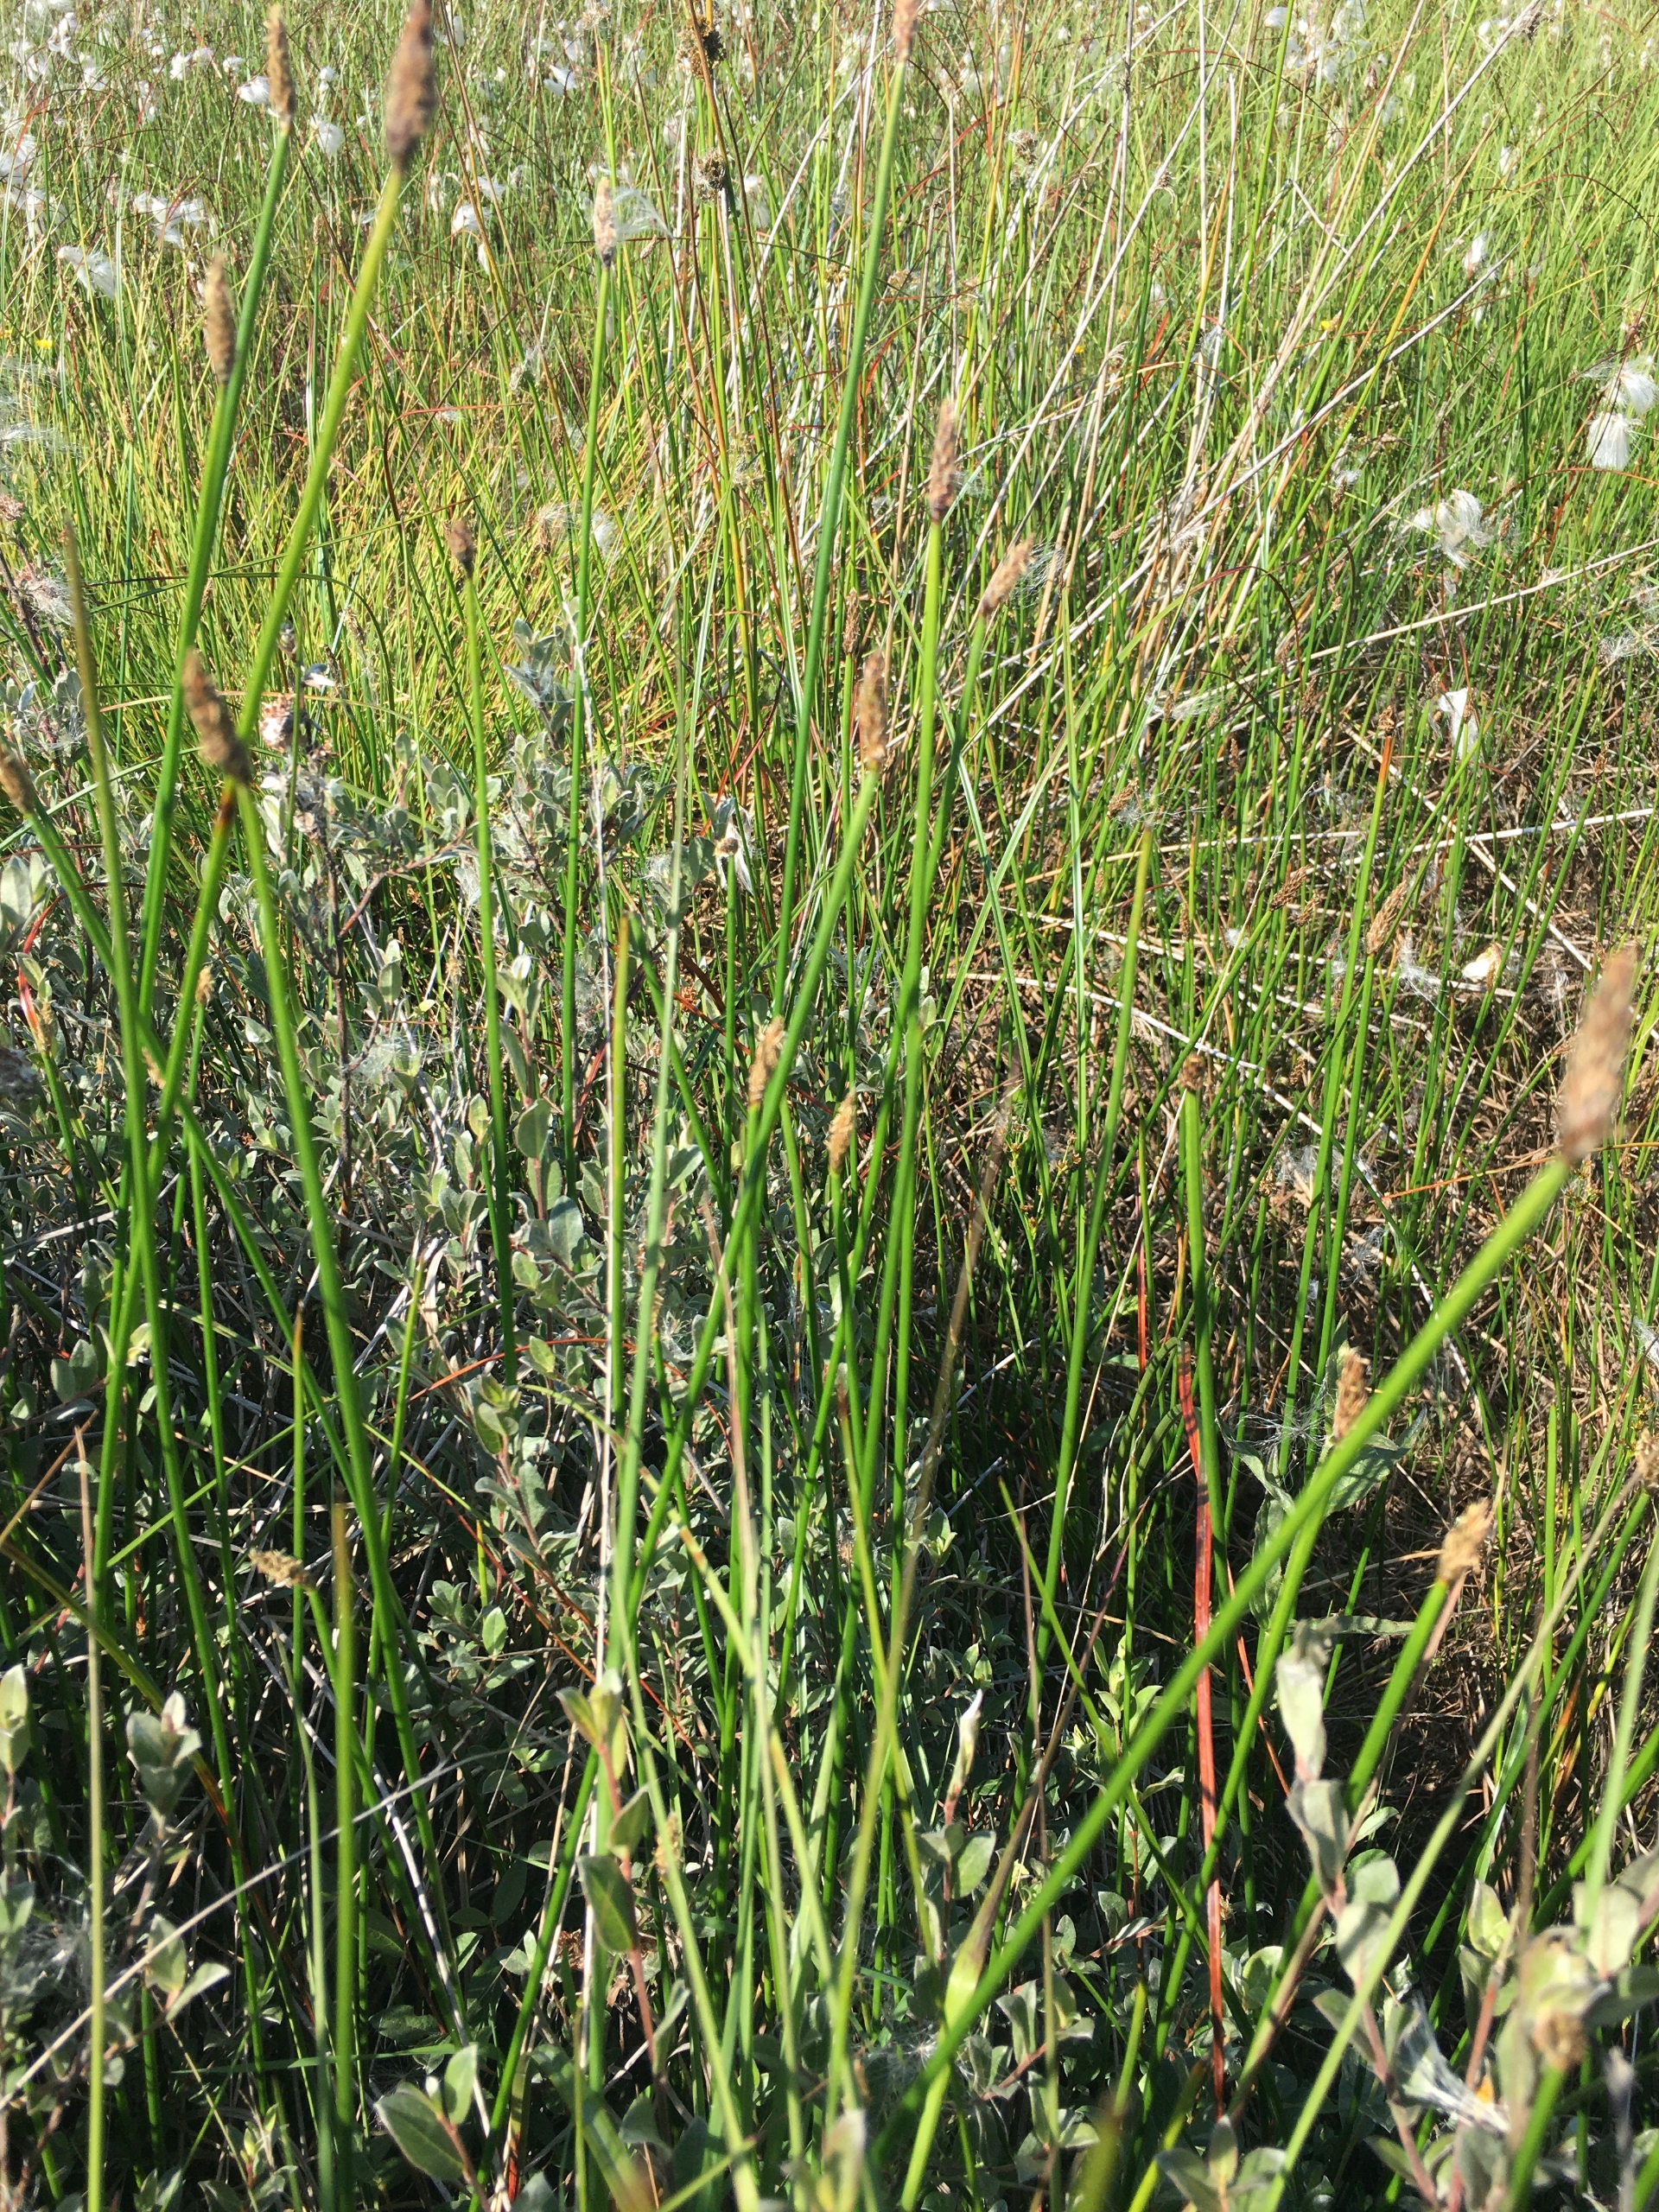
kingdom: Plantae
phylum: Tracheophyta
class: Liliopsida
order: Poales
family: Cyperaceae
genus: Eleocharis
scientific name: Eleocharis palustris
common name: Almindelig sumpstrå
